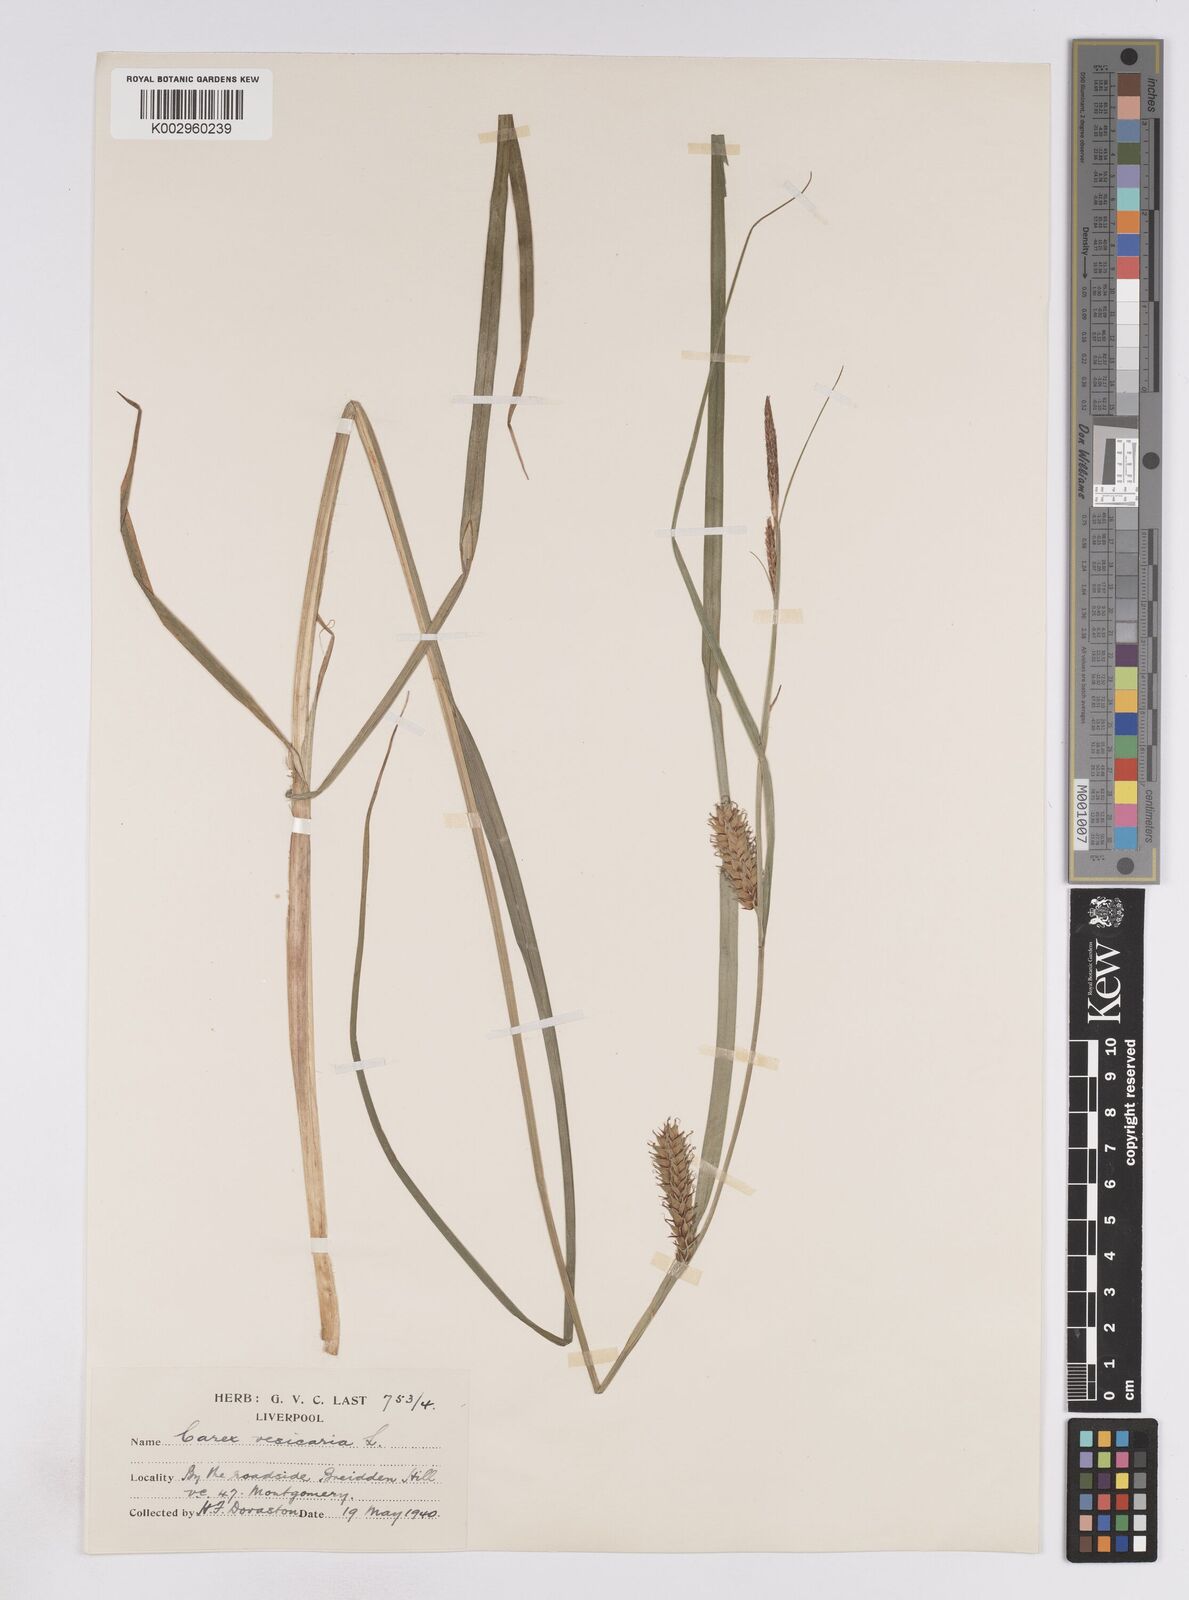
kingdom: Plantae
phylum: Tracheophyta
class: Liliopsida
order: Poales
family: Cyperaceae
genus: Carex
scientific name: Carex vesicaria
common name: Bladder-sedge
